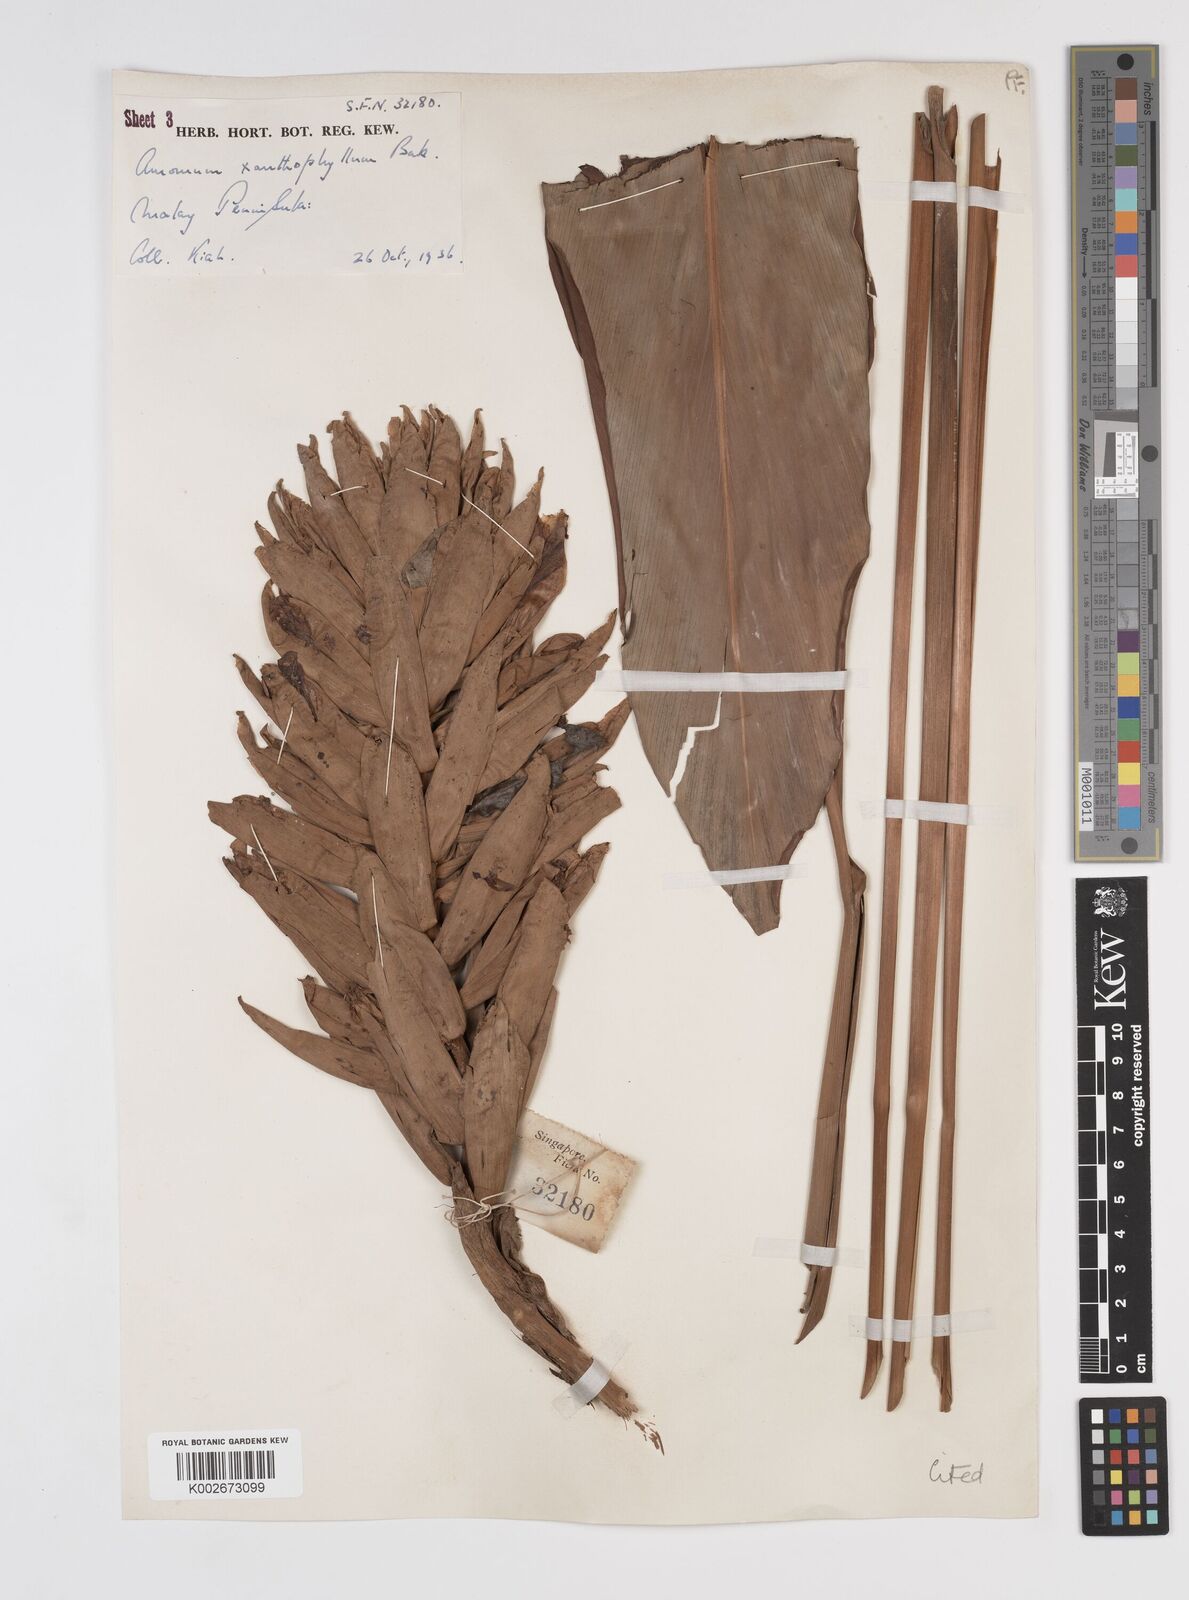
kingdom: Plantae
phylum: Tracheophyta
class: Liliopsida
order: Zingiberales
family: Zingiberaceae
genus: Conamomum
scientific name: Conamomum xanthophlebium
